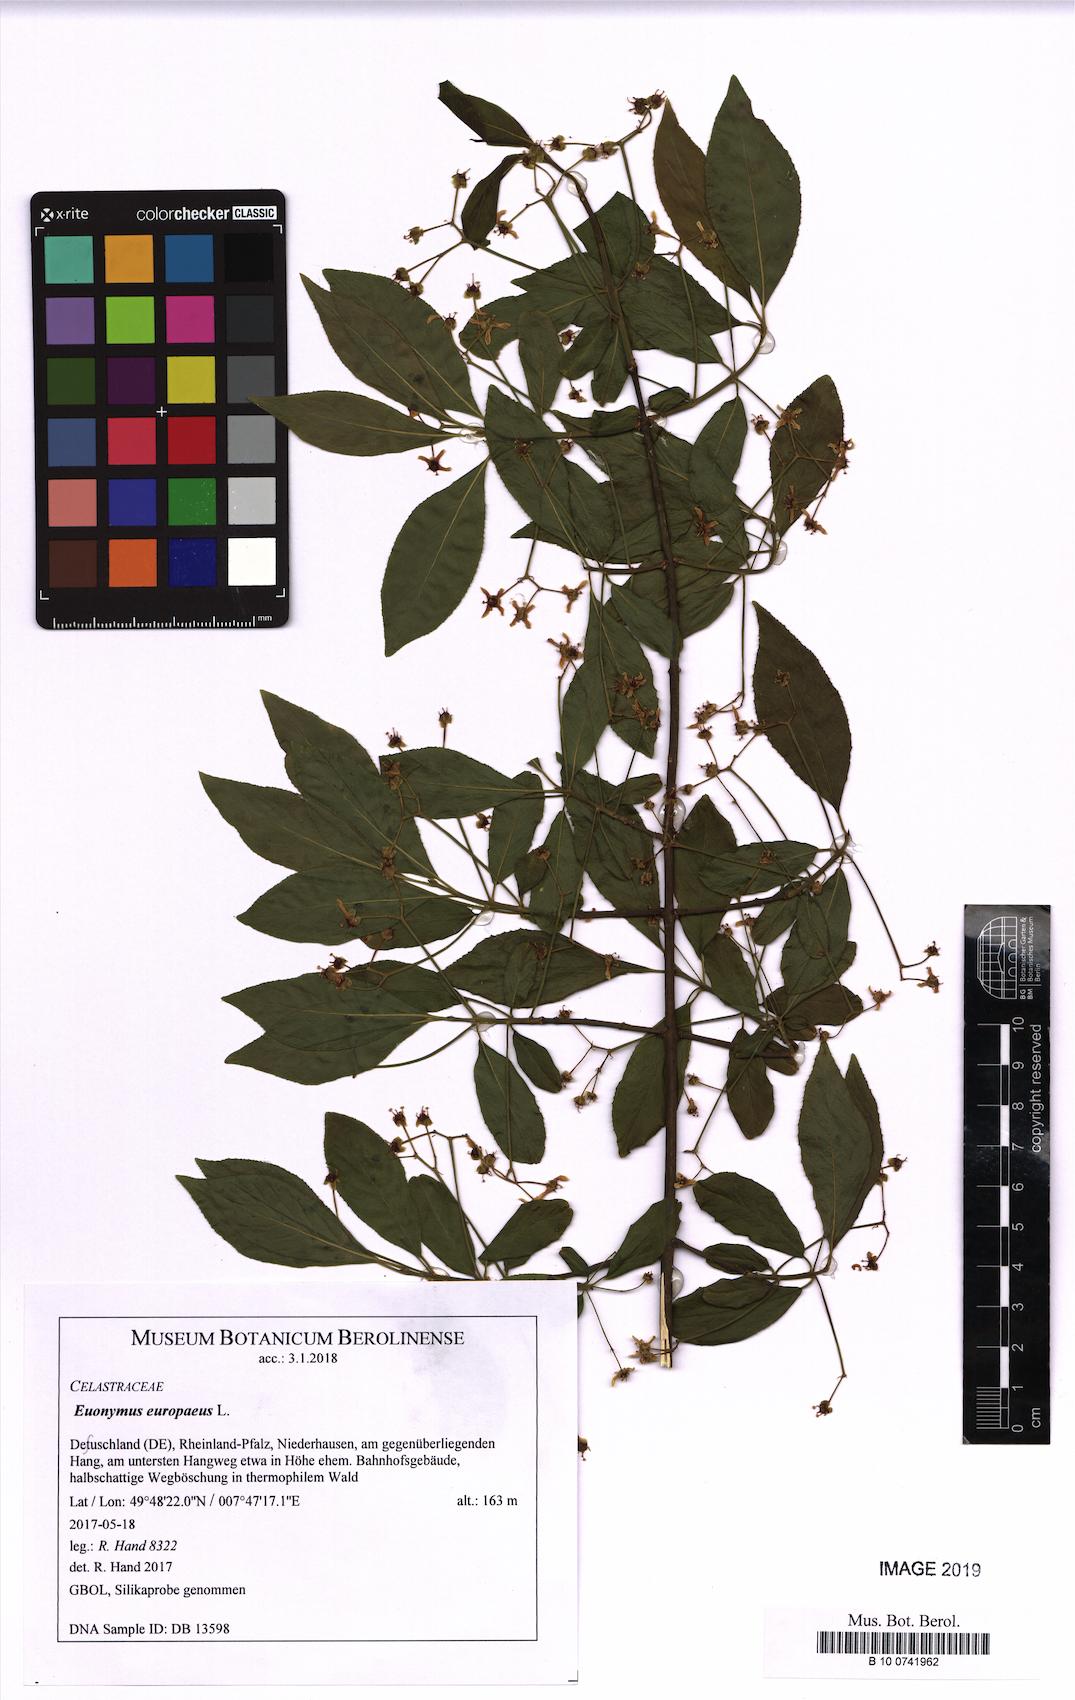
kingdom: Plantae
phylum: Tracheophyta
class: Magnoliopsida
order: Celastrales
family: Celastraceae
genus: Euonymus
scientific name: Euonymus europaeus
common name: Spindle
